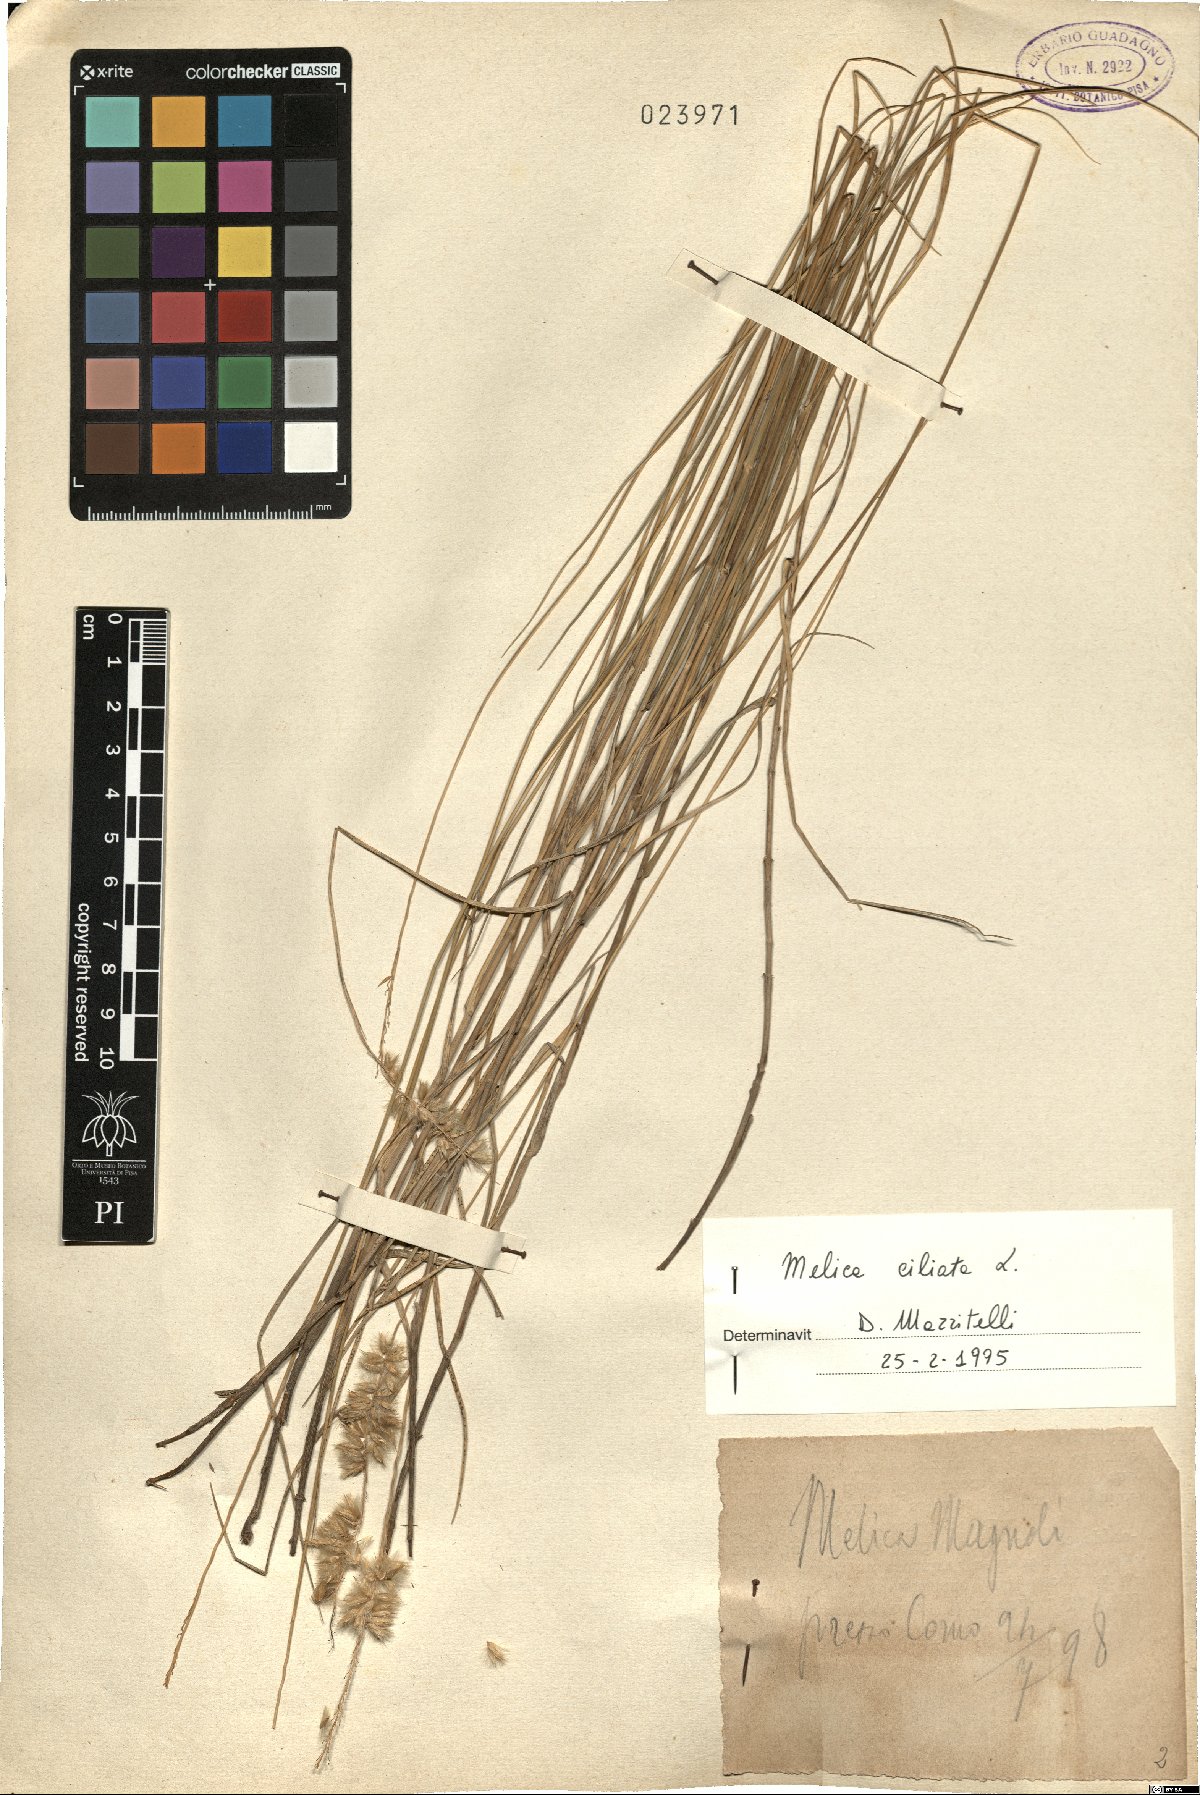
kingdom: Plantae
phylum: Tracheophyta
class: Liliopsida
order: Poales
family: Poaceae
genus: Melica
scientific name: Melica ciliata
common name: Hairy melicgrass
